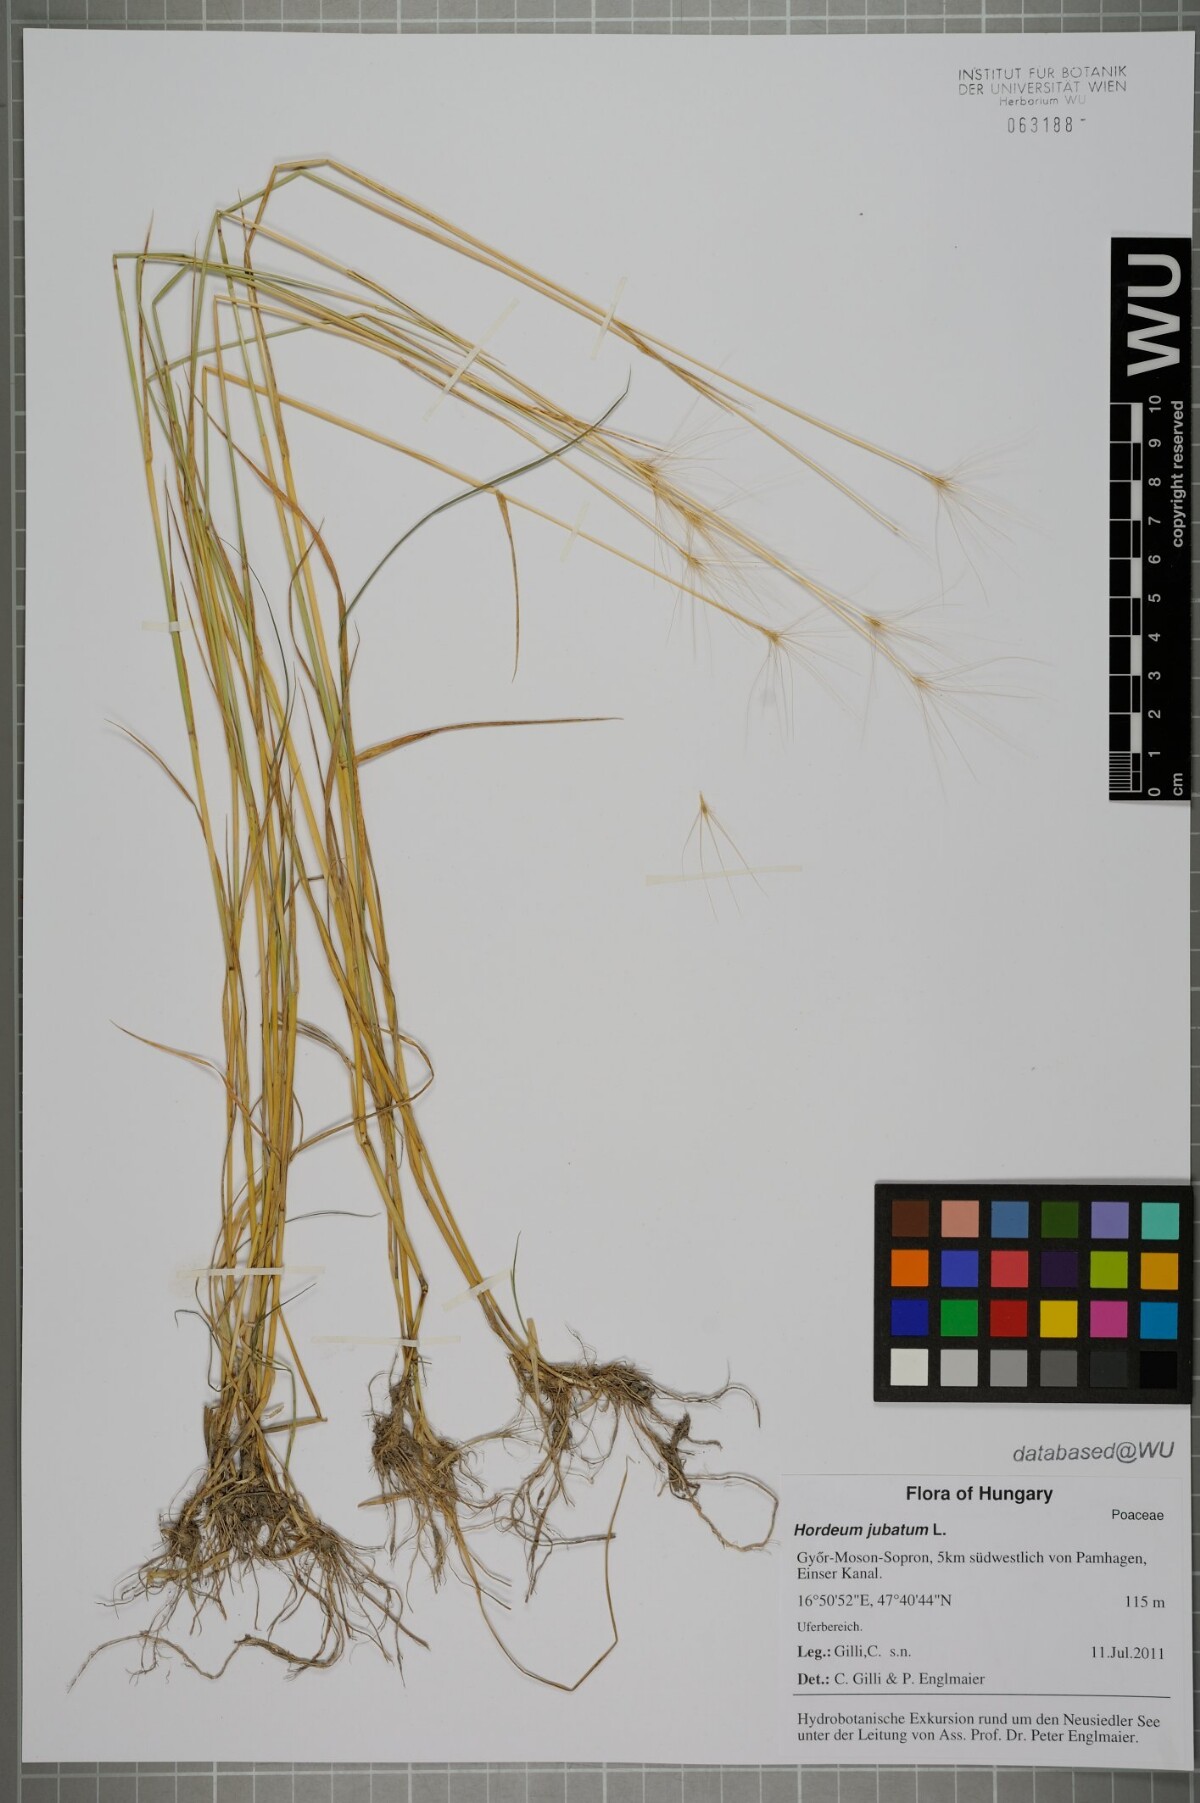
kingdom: Plantae
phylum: Tracheophyta
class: Liliopsida
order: Poales
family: Poaceae
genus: Hordeum
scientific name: Hordeum jubatum
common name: Foxtail barley
